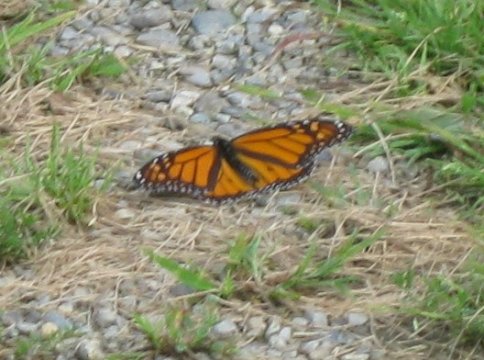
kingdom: Animalia
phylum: Arthropoda
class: Insecta
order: Lepidoptera
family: Nymphalidae
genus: Danaus
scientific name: Danaus plexippus
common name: Monarch
